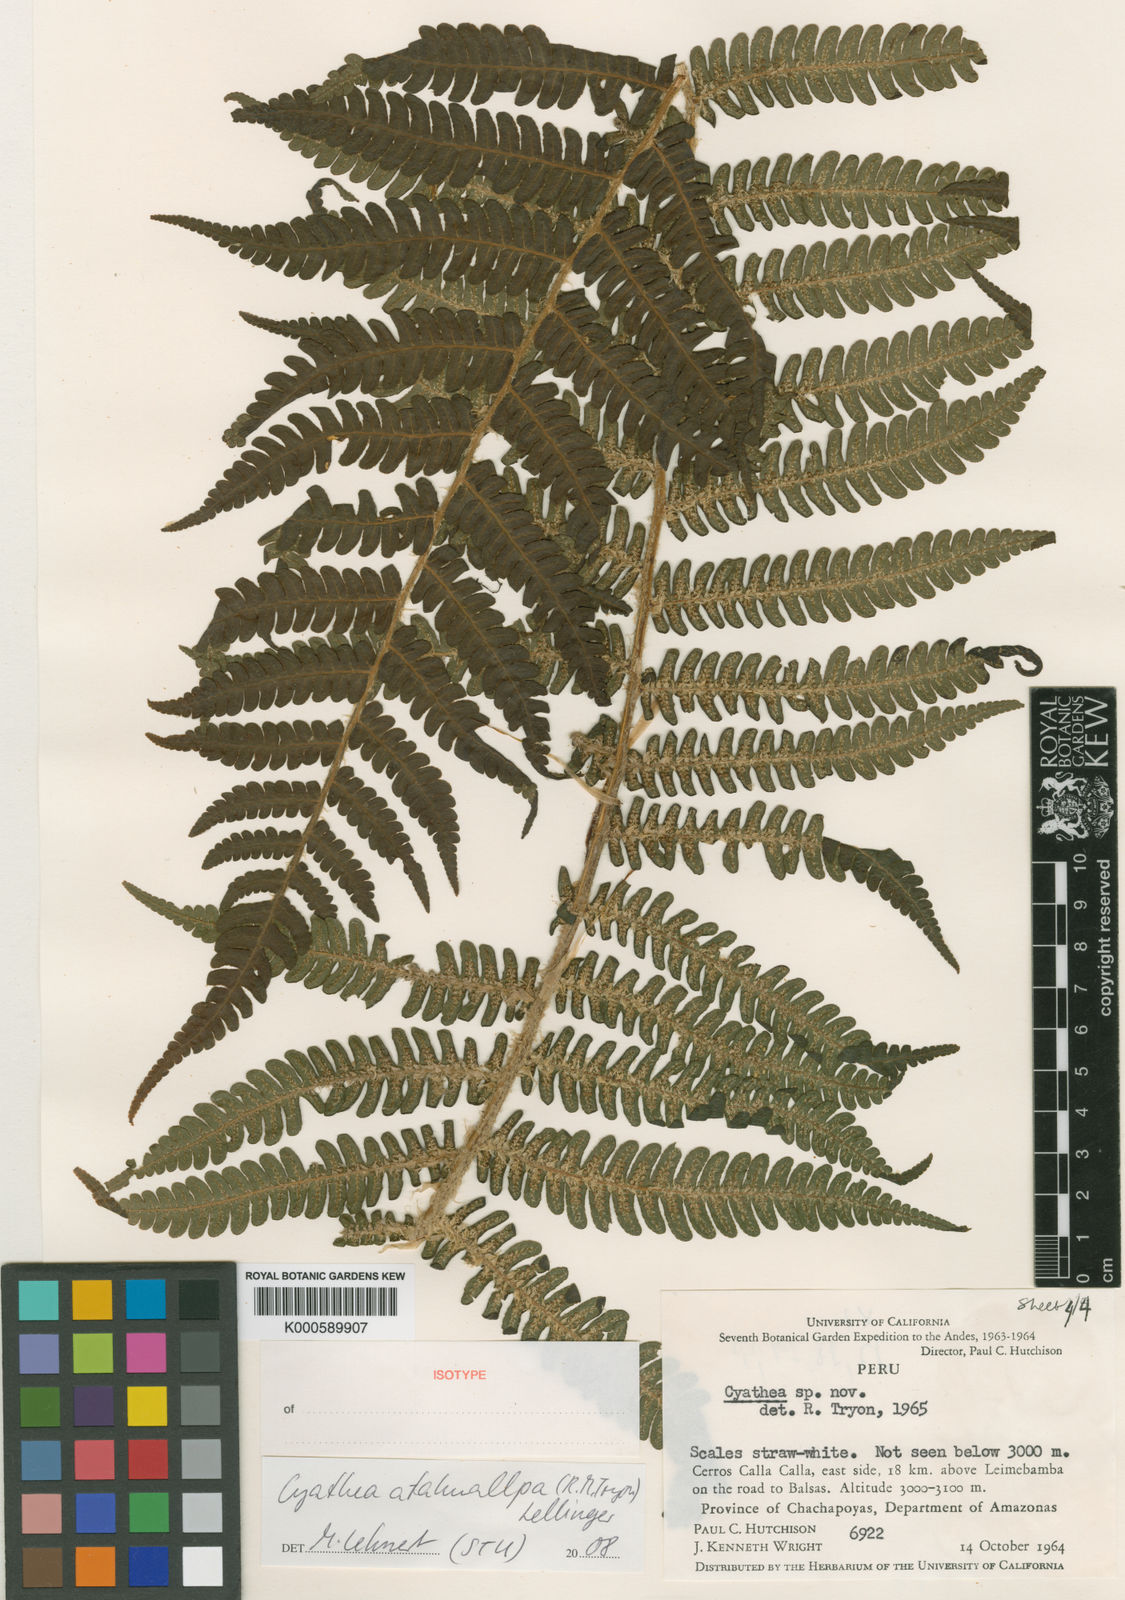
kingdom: Plantae
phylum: Tracheophyta
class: Polypodiopsida
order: Cyatheales
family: Cyatheaceae
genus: Cyathea
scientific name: Cyathea atahuallpa
